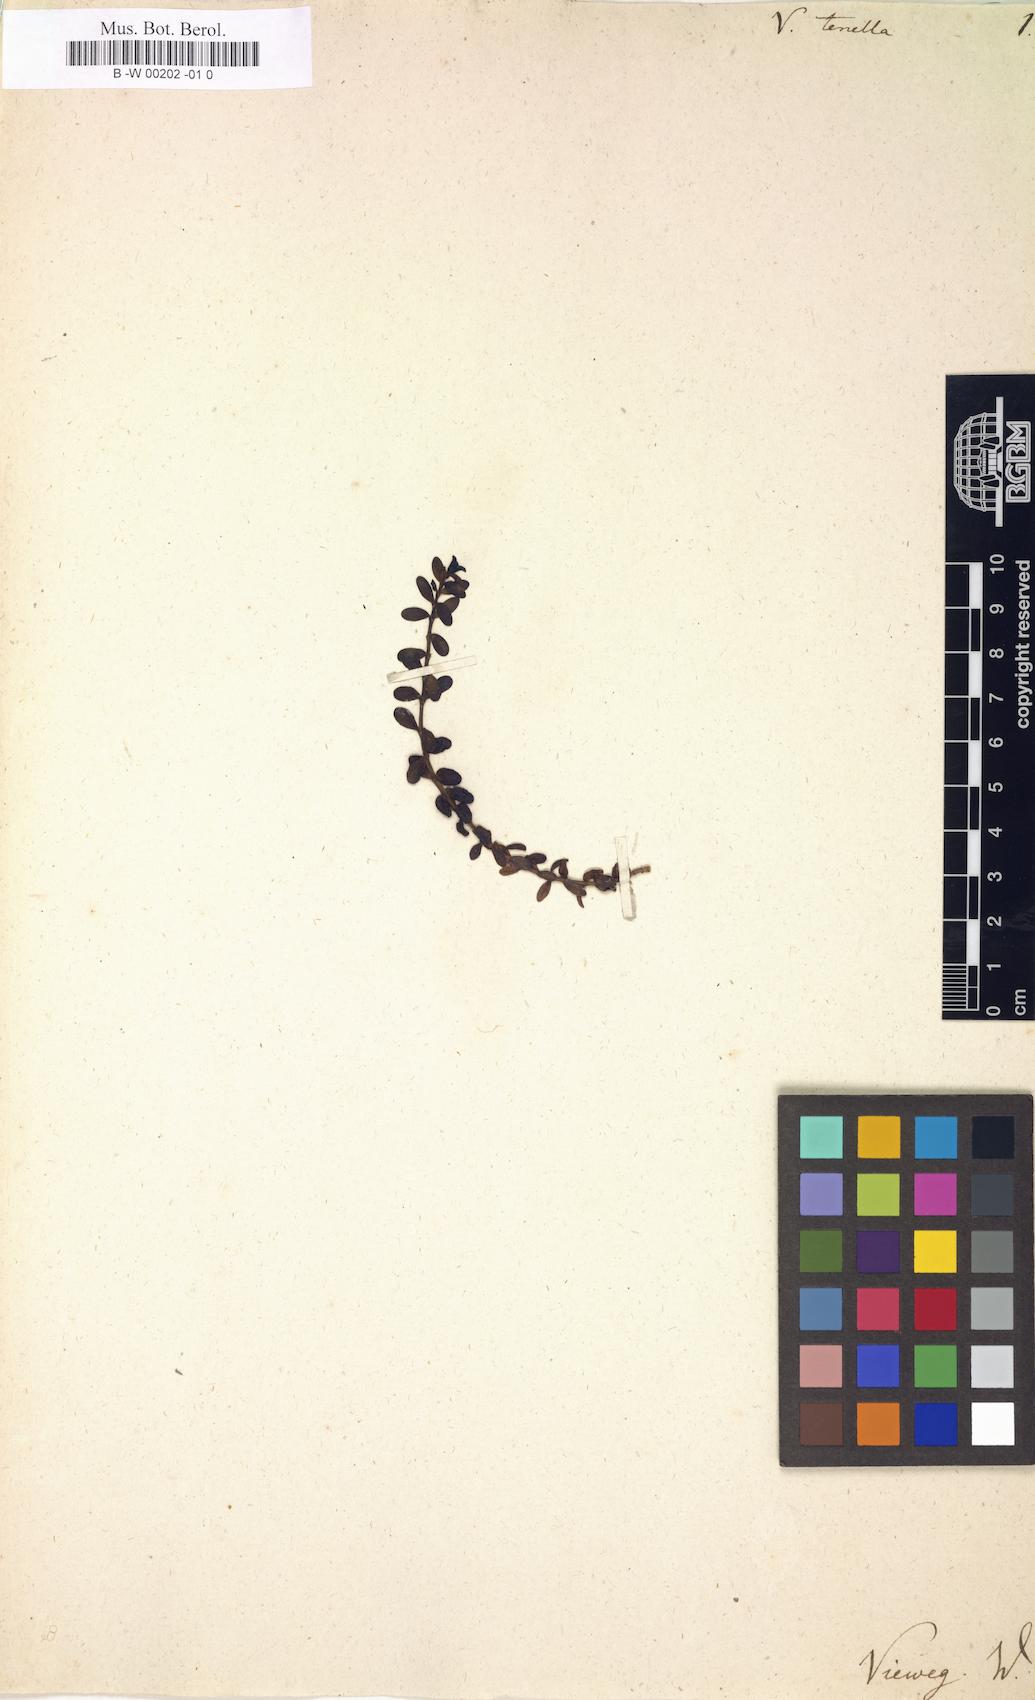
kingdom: Plantae
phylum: Tracheophyta
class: Magnoliopsida
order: Lamiales
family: Plantaginaceae
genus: Veronica
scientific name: Veronica
